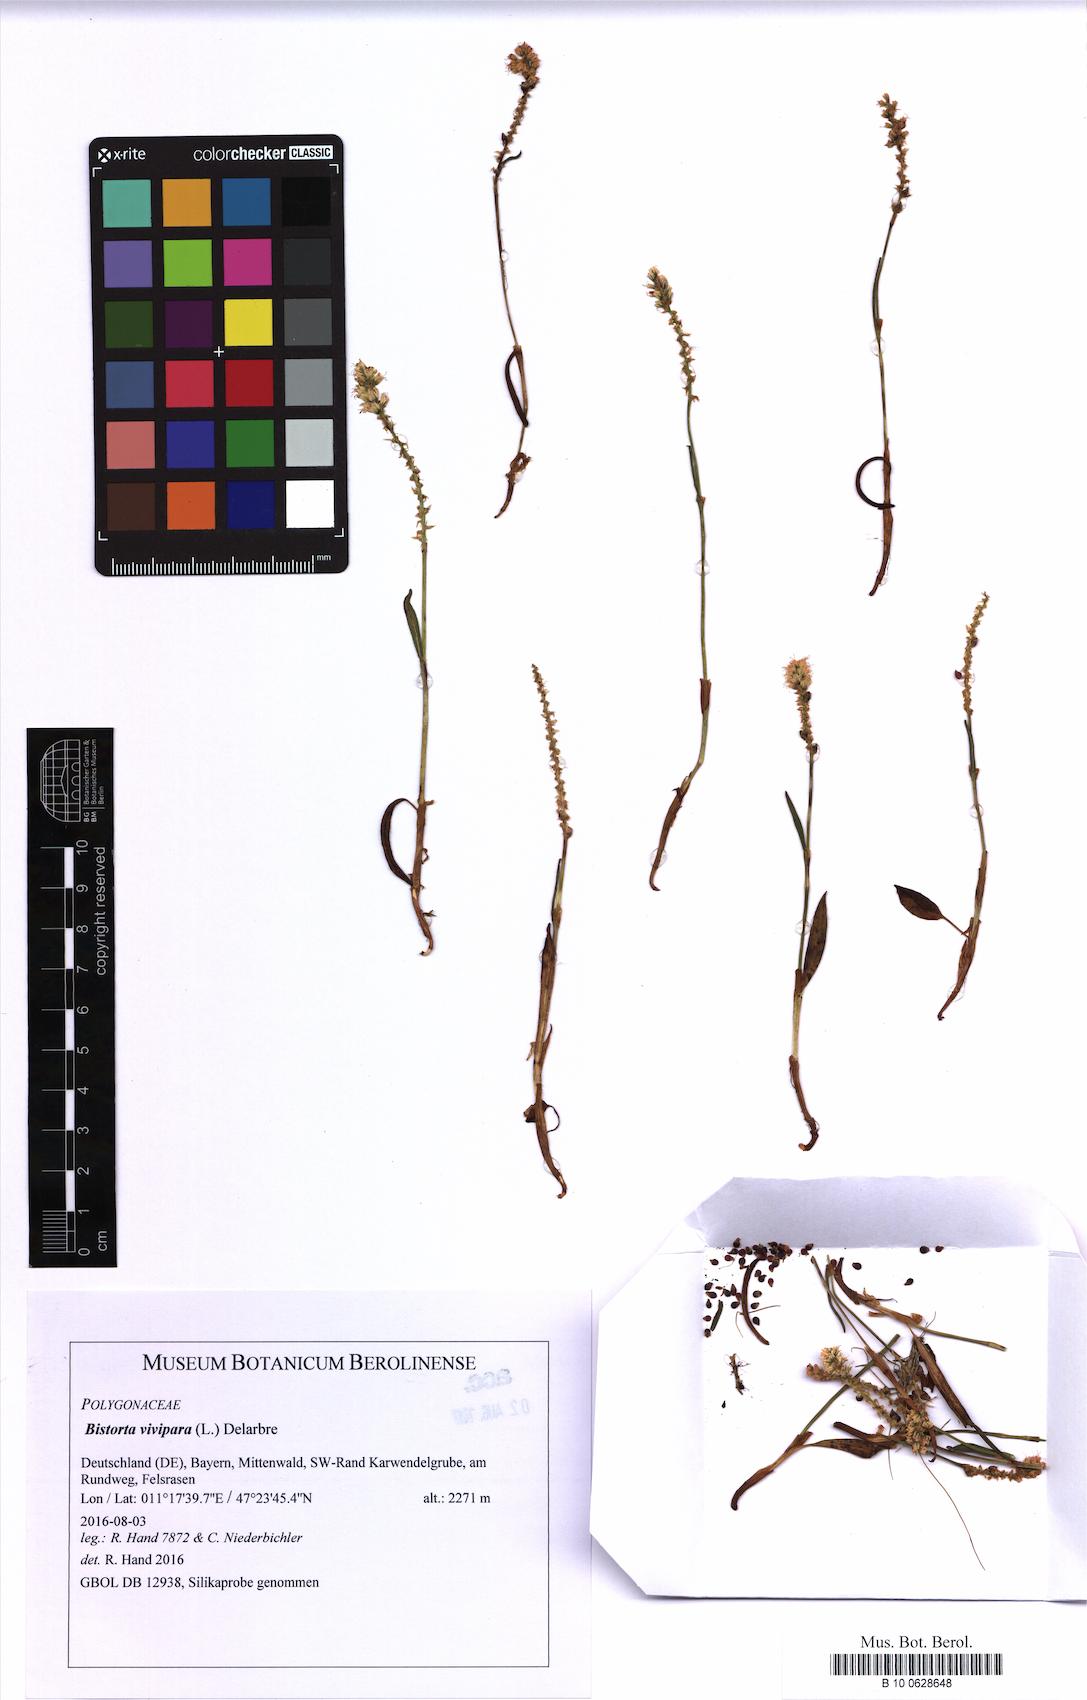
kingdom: Plantae
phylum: Tracheophyta
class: Magnoliopsida
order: Caryophyllales
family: Polygonaceae
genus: Bistorta
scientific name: Bistorta vivipara
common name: Alpine bistort
